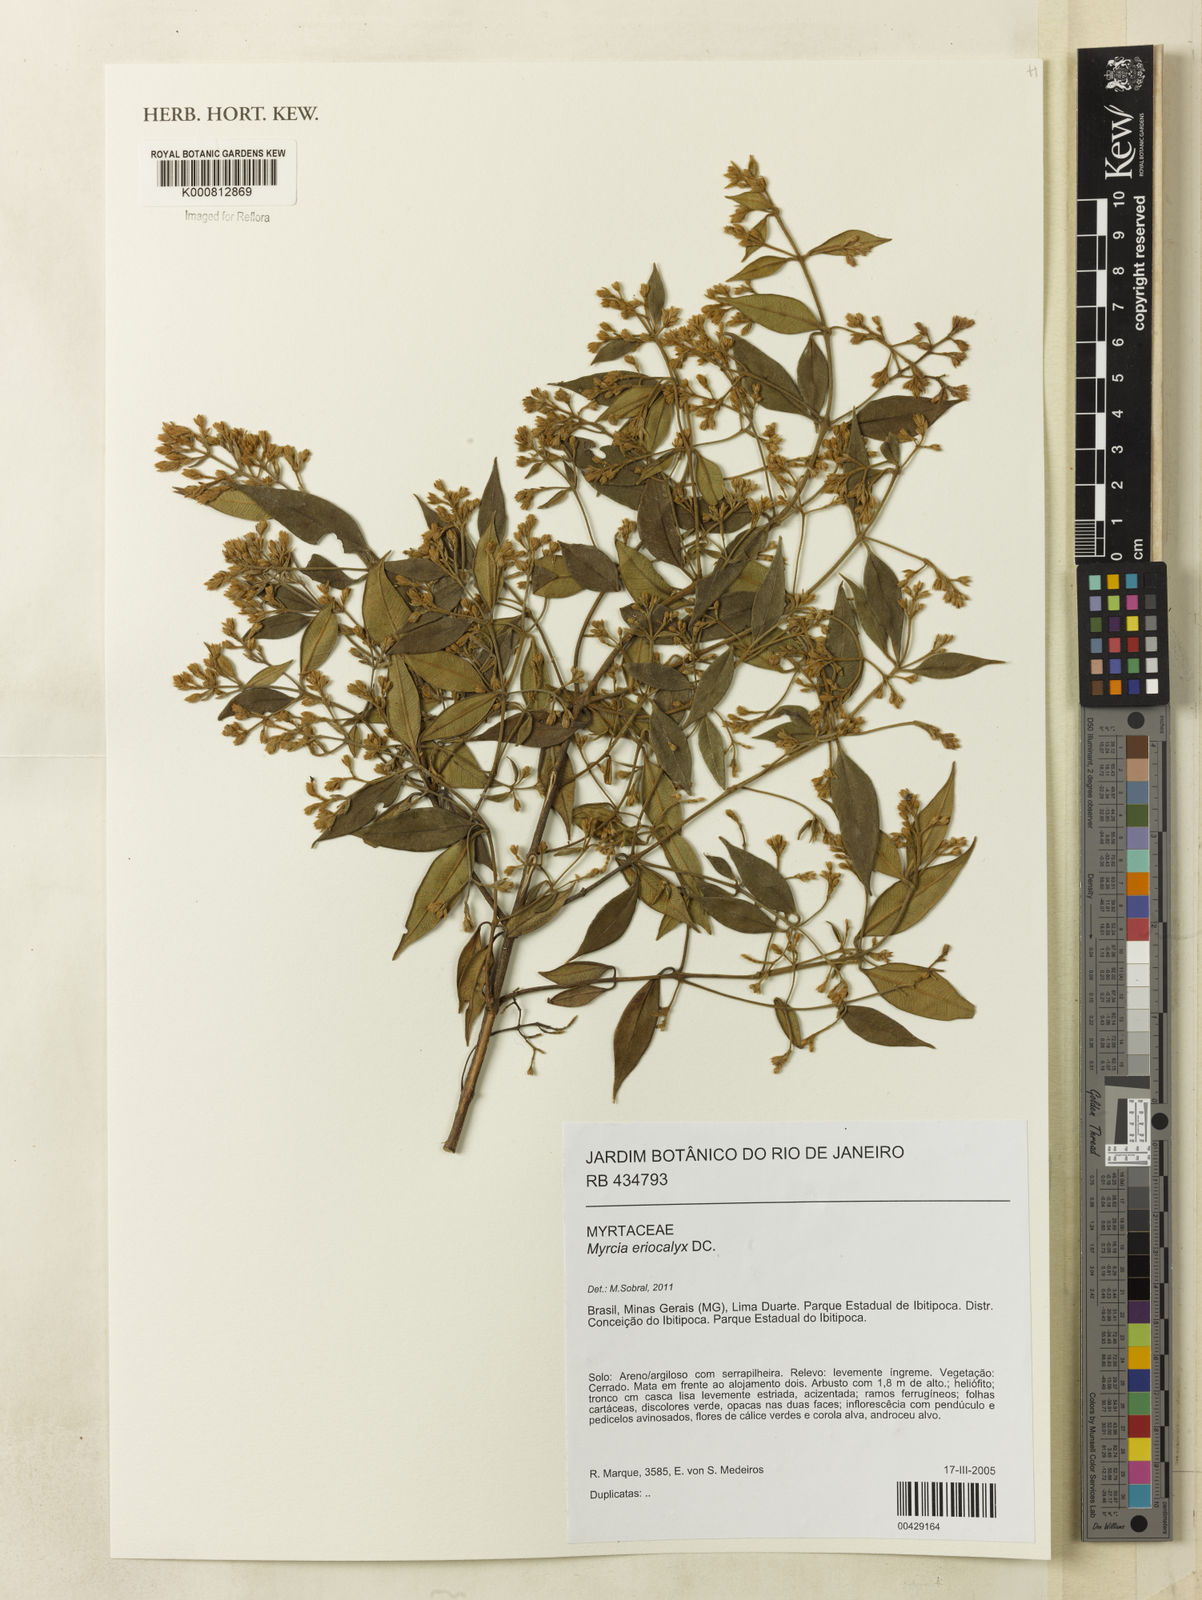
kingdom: Plantae
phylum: Tracheophyta
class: Magnoliopsida
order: Myrtales
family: Myrtaceae
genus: Myrcia
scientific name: Myrcia eriocalyx
